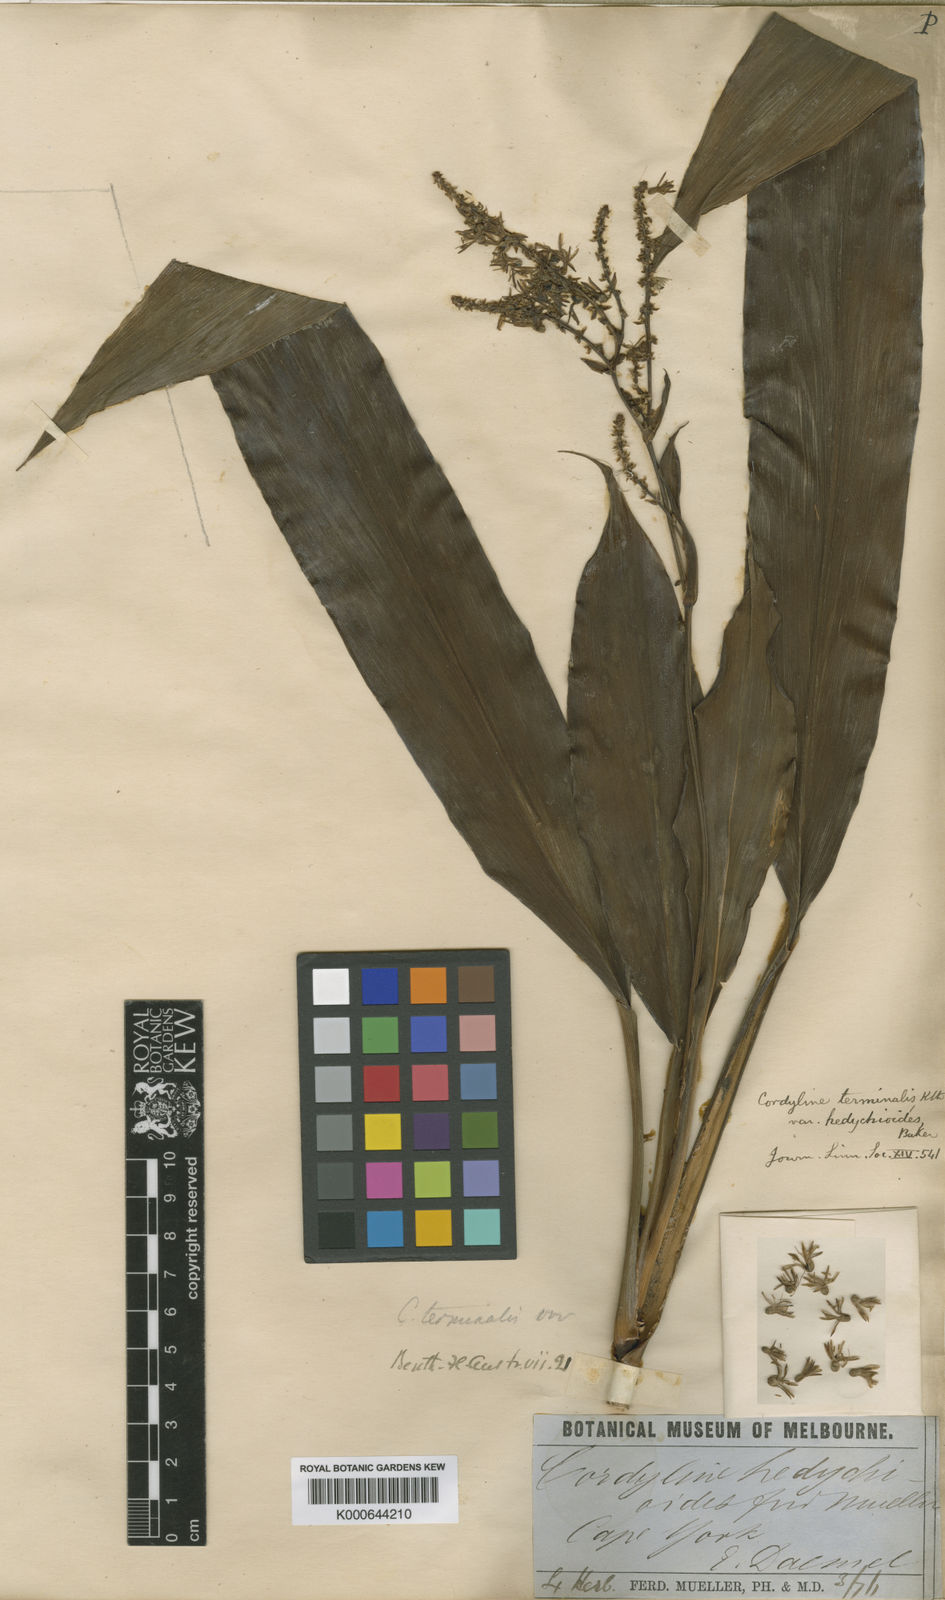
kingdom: Plantae
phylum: Tracheophyta
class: Liliopsida
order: Asparagales
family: Asparagaceae
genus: Cordyline
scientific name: Cordyline fruticosa
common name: Good-luck-plant
